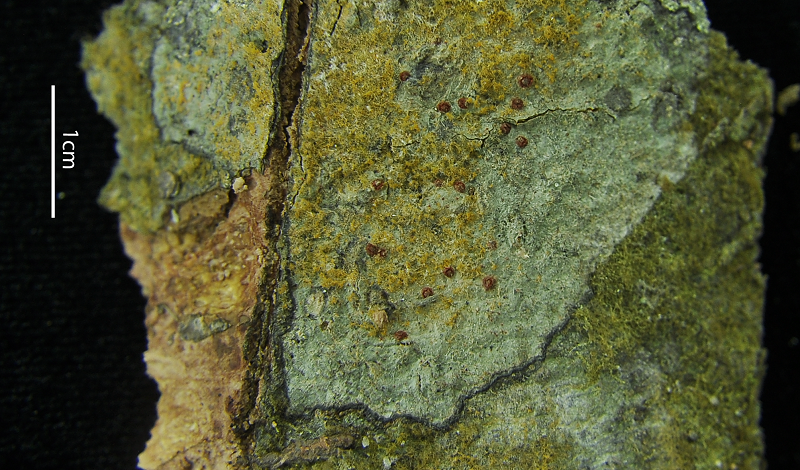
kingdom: Fungi
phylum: Ascomycota
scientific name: Ascomycota
